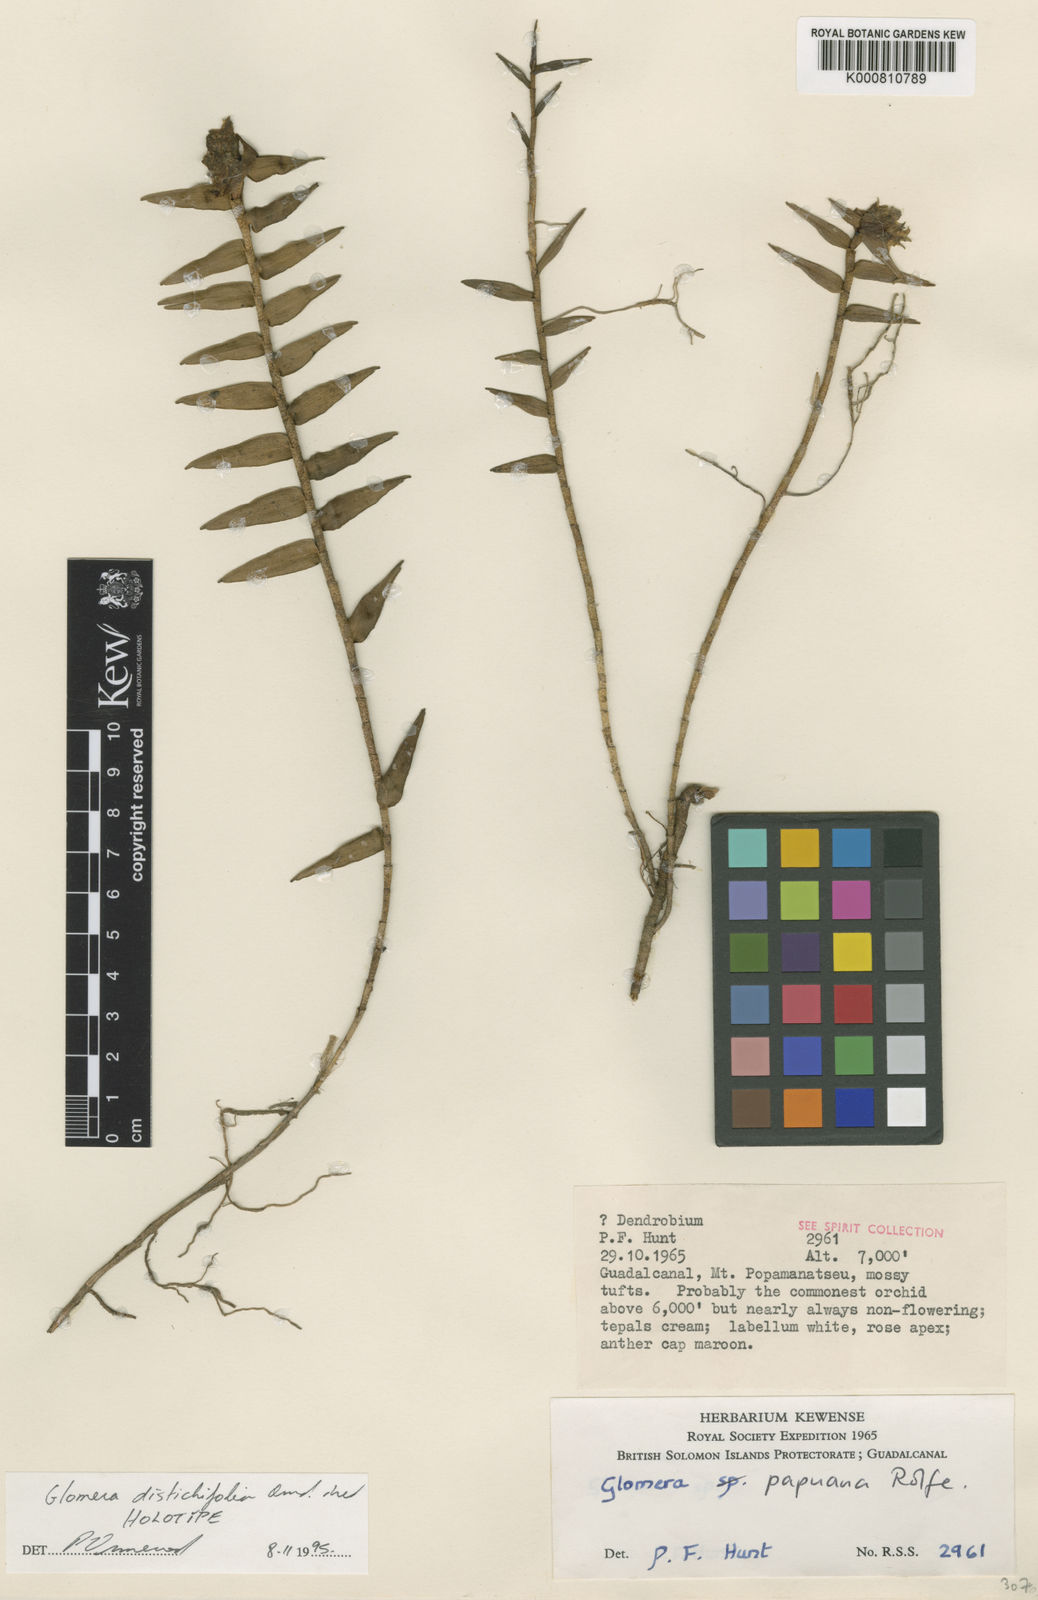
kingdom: Plantae
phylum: Tracheophyta
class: Liliopsida
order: Asparagales
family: Orchidaceae
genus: Glomera
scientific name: Glomera distichifolia
